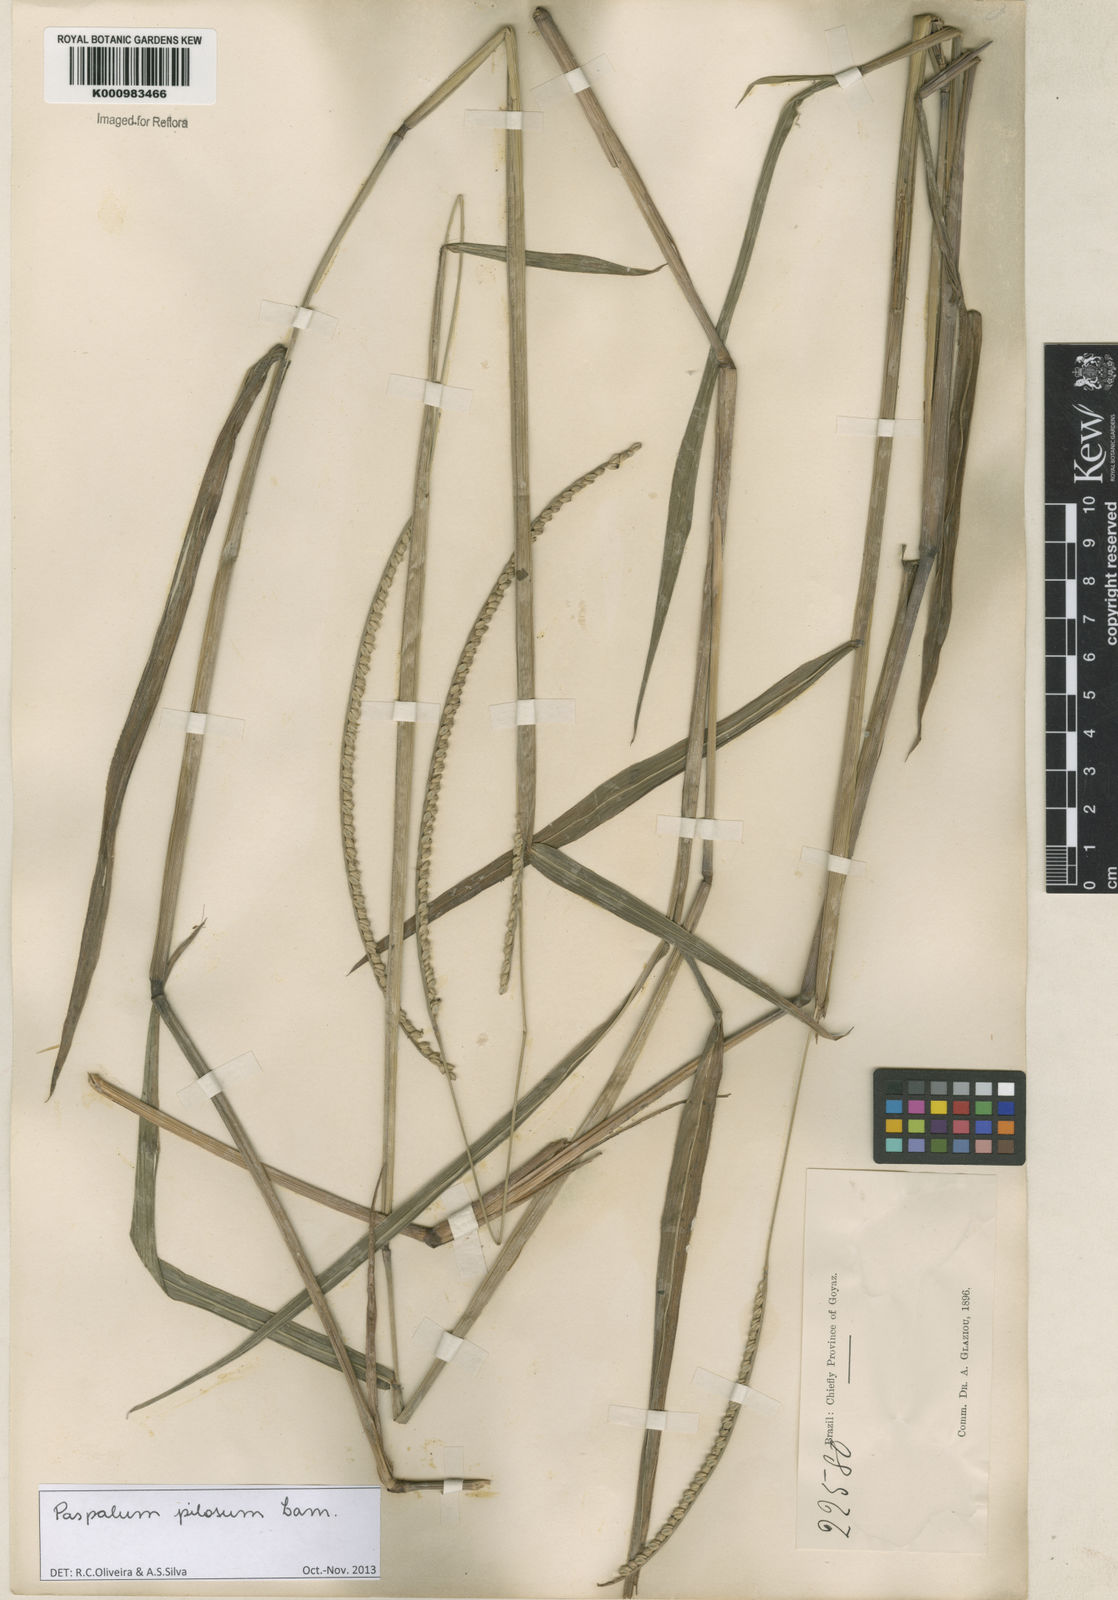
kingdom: Plantae
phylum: Tracheophyta
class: Liliopsida
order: Poales
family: Poaceae
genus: Paspalum
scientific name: Paspalum pilosum
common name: Crowngrass
